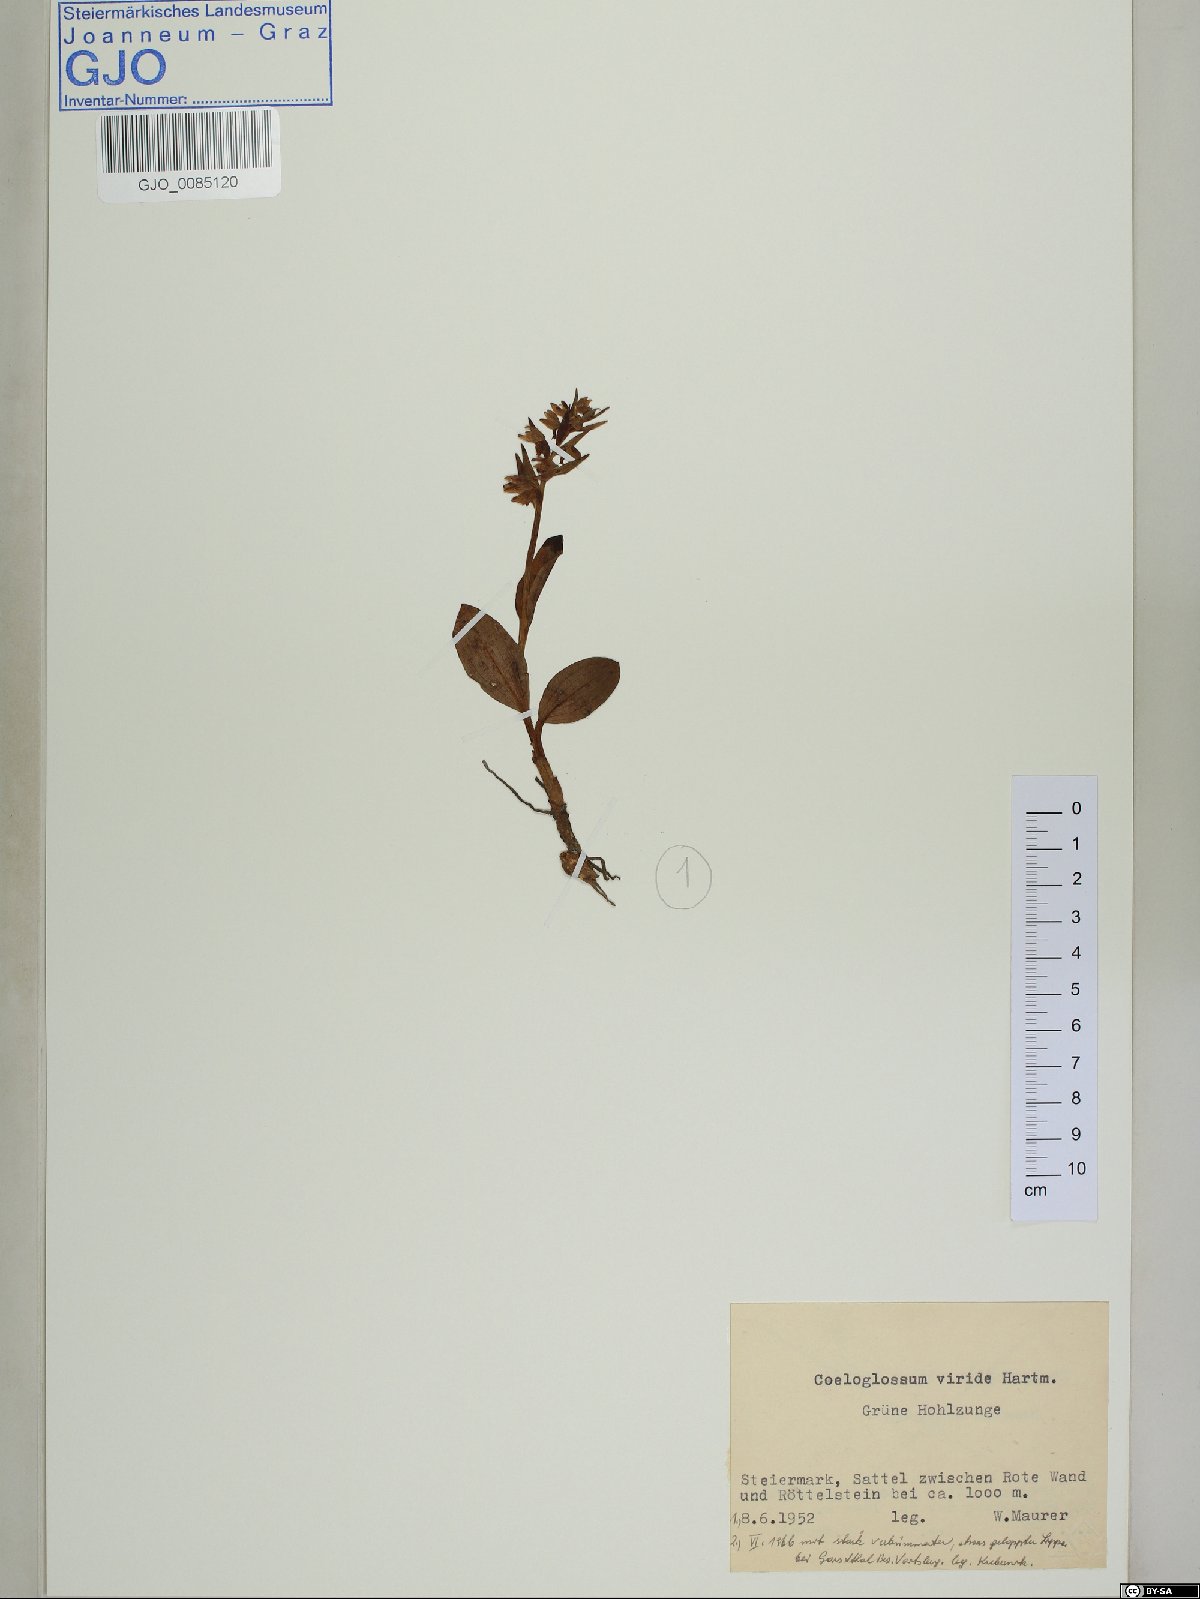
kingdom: Plantae
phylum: Tracheophyta
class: Liliopsida
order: Asparagales
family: Orchidaceae
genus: Dactylorhiza
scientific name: Dactylorhiza viridis
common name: Longbract frog orchid
